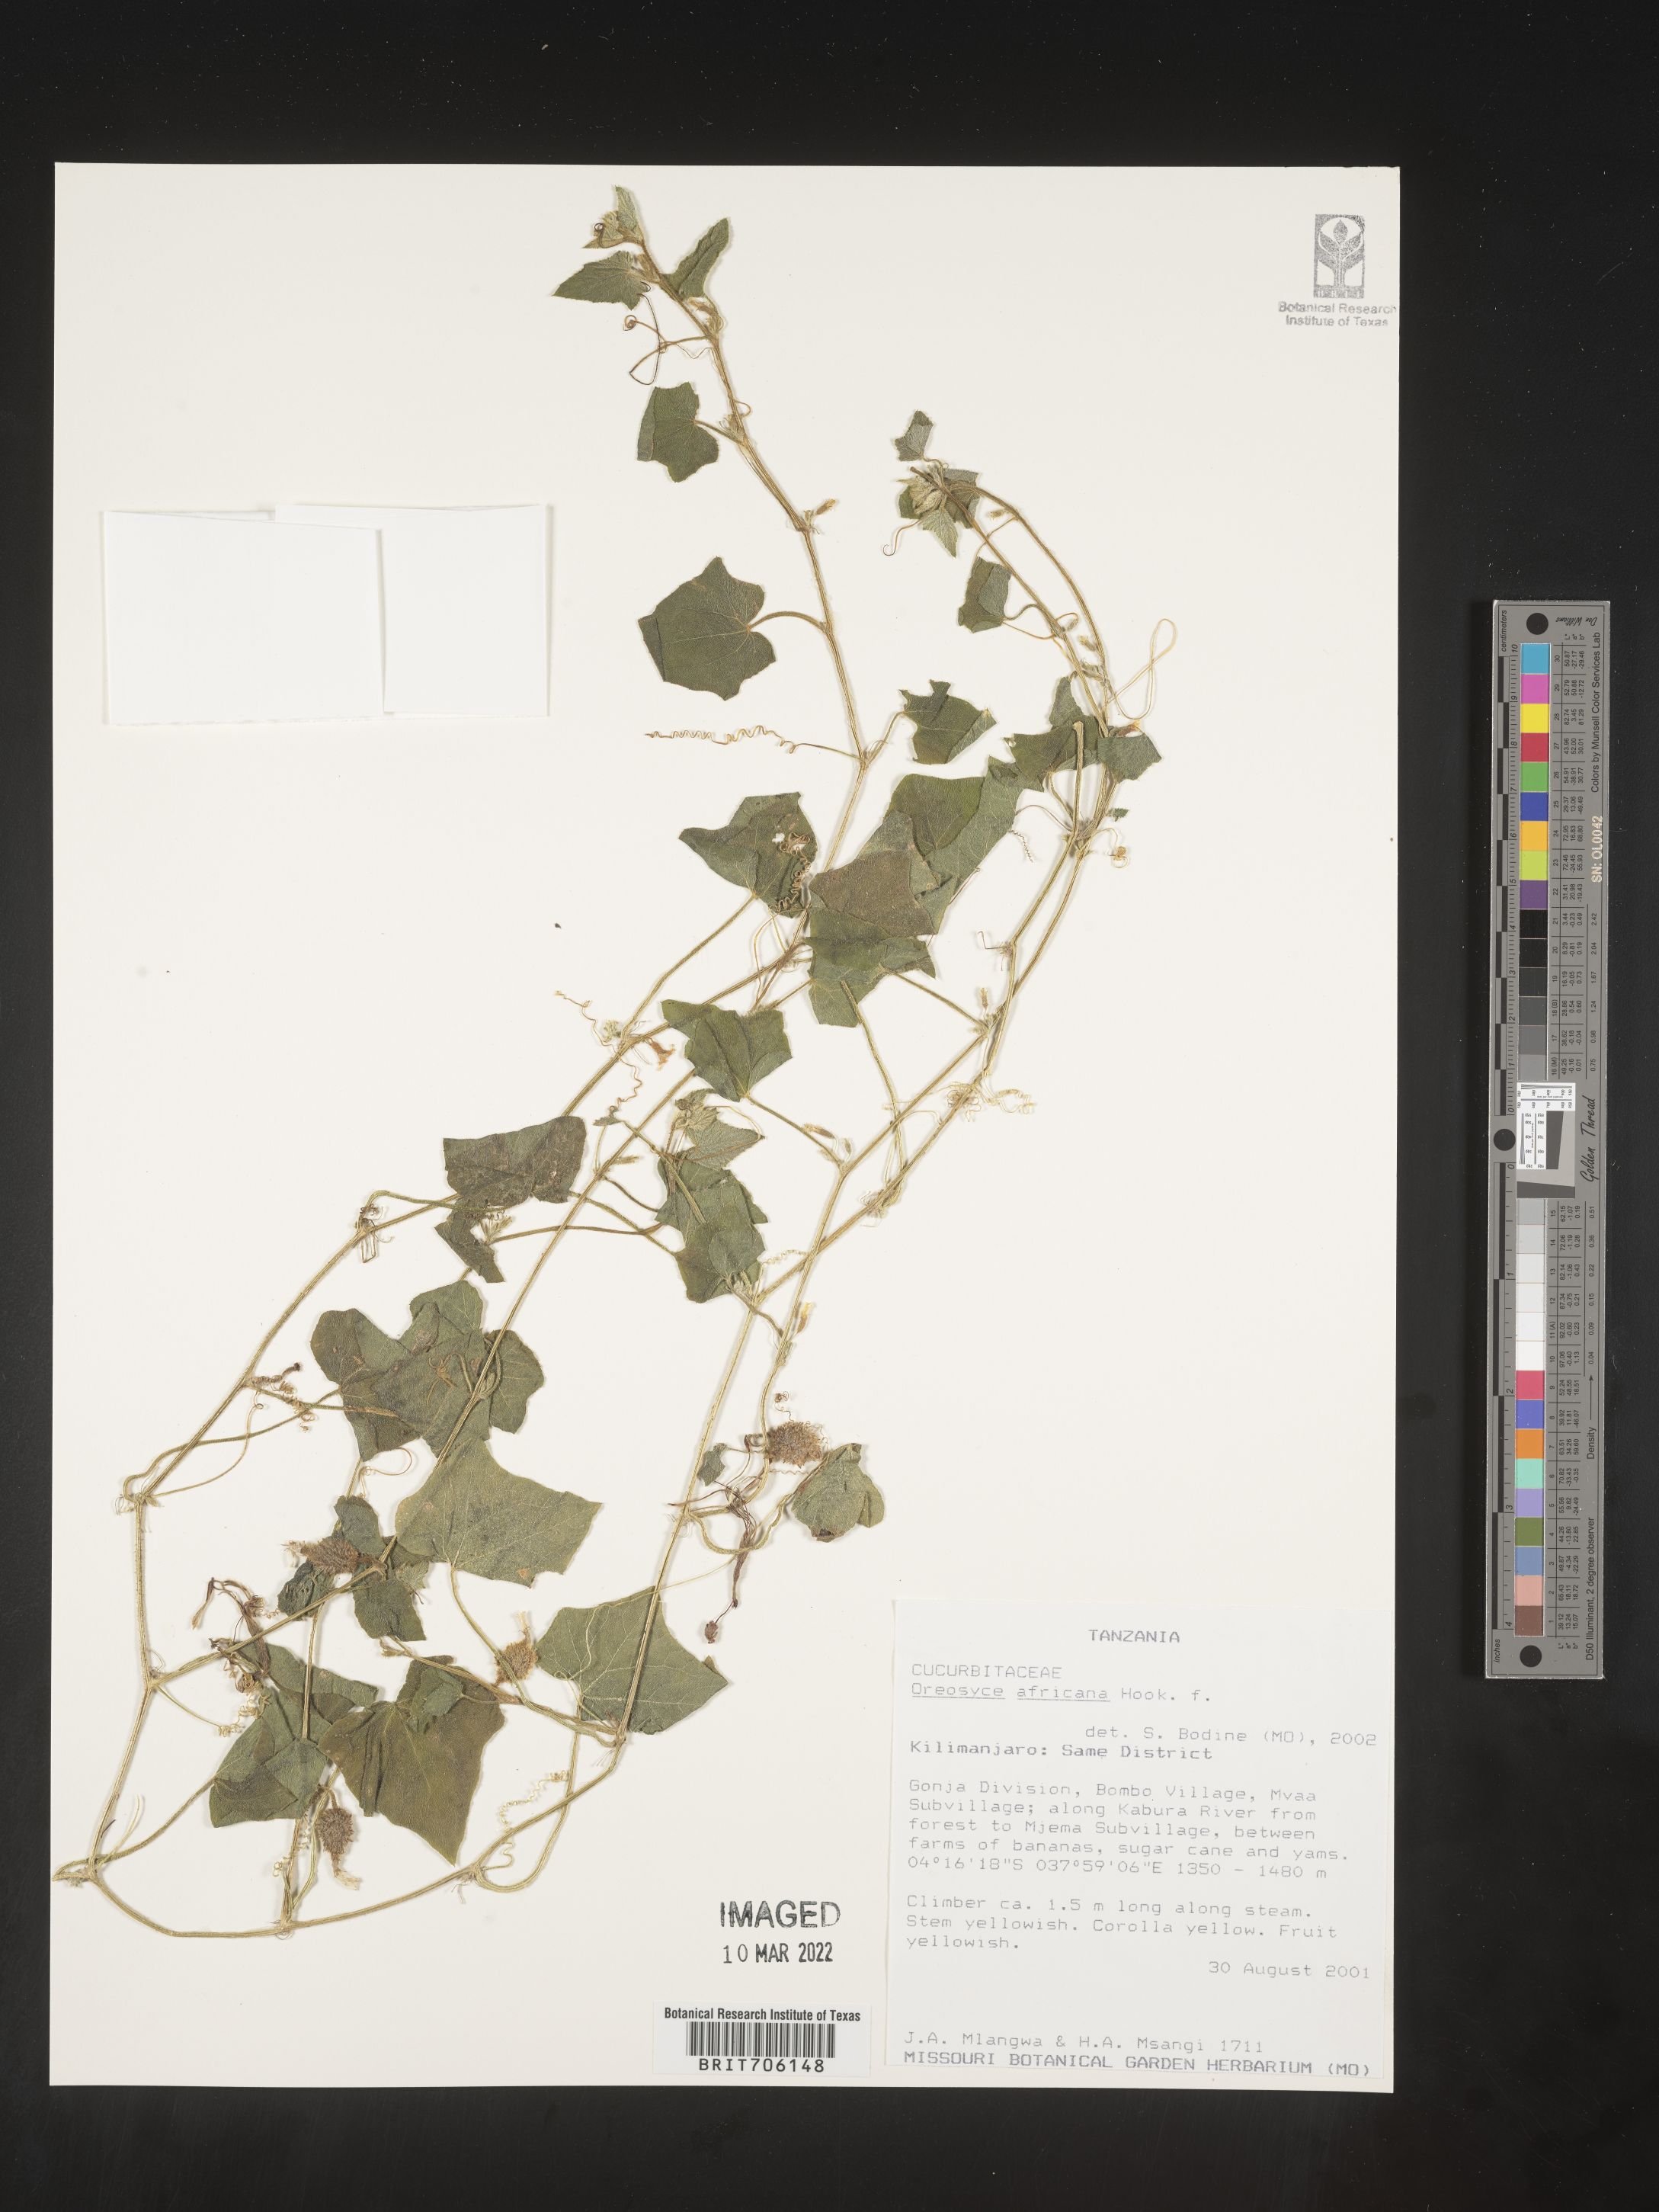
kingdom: Plantae
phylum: Tracheophyta
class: Magnoliopsida
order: Cucurbitales
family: Cucurbitaceae
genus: Oreosyce
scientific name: Oreosyce
